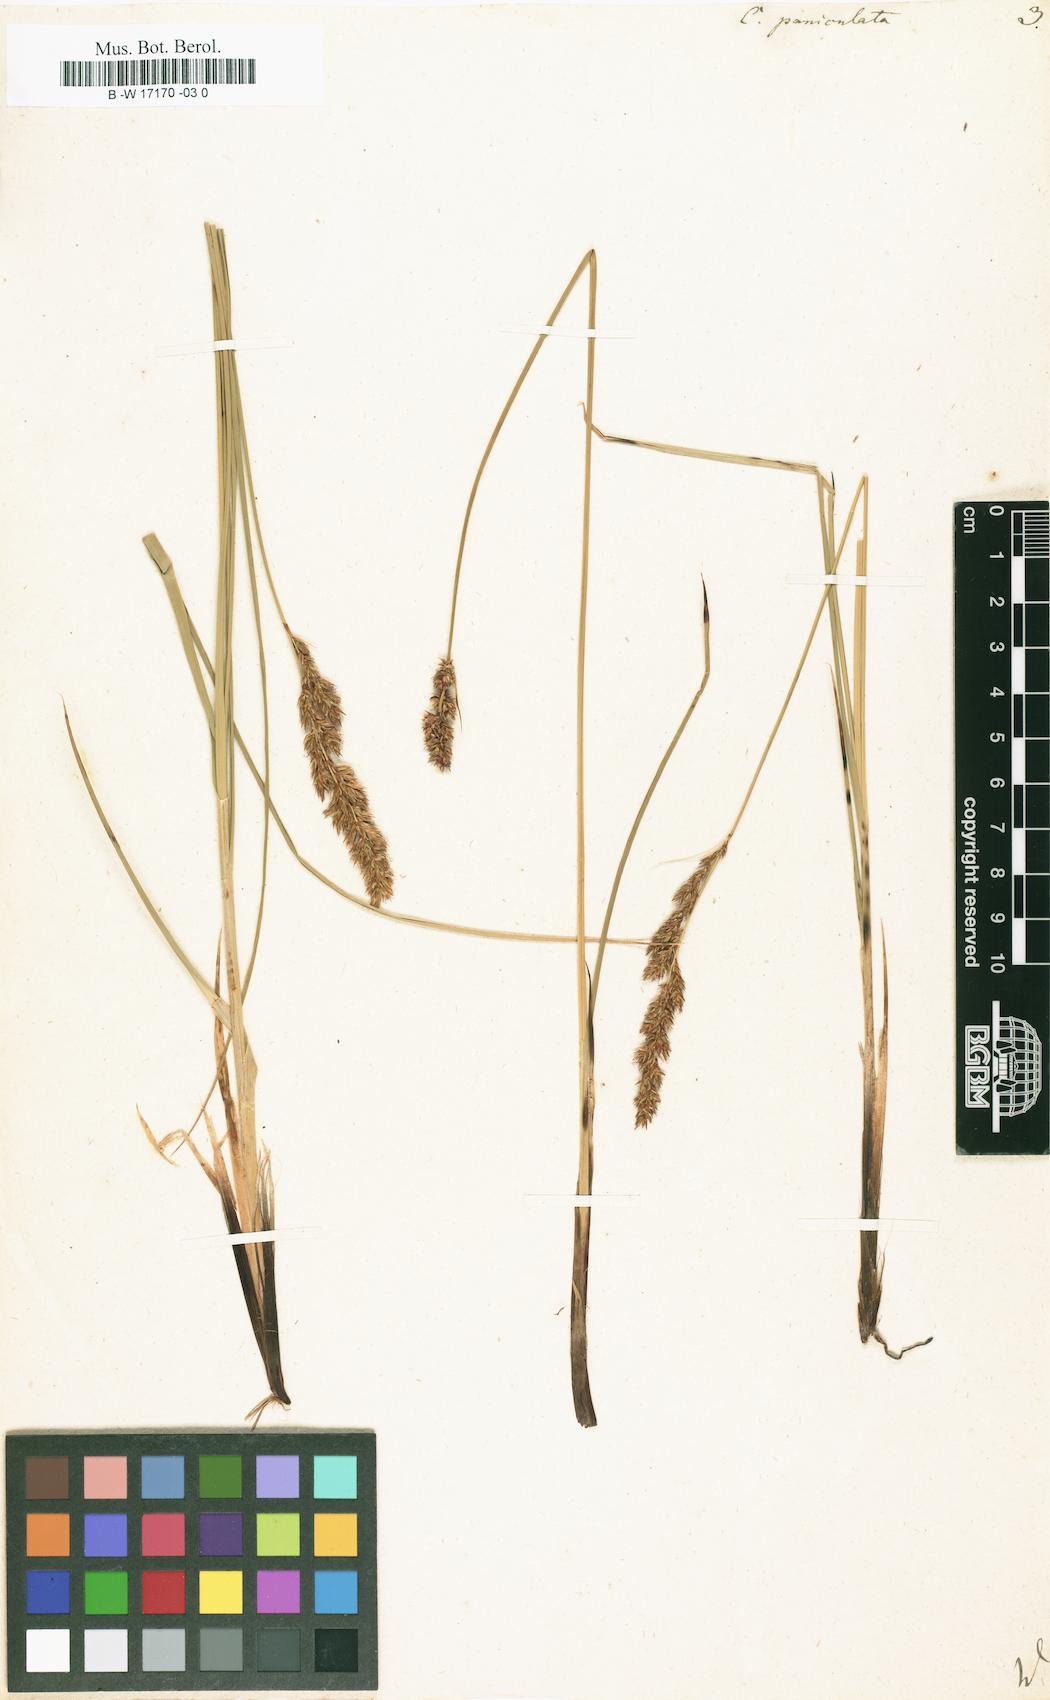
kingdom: Plantae
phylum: Tracheophyta
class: Liliopsida
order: Poales
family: Cyperaceae
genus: Carex
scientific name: Carex paniculata
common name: Greater tussock-sedge
